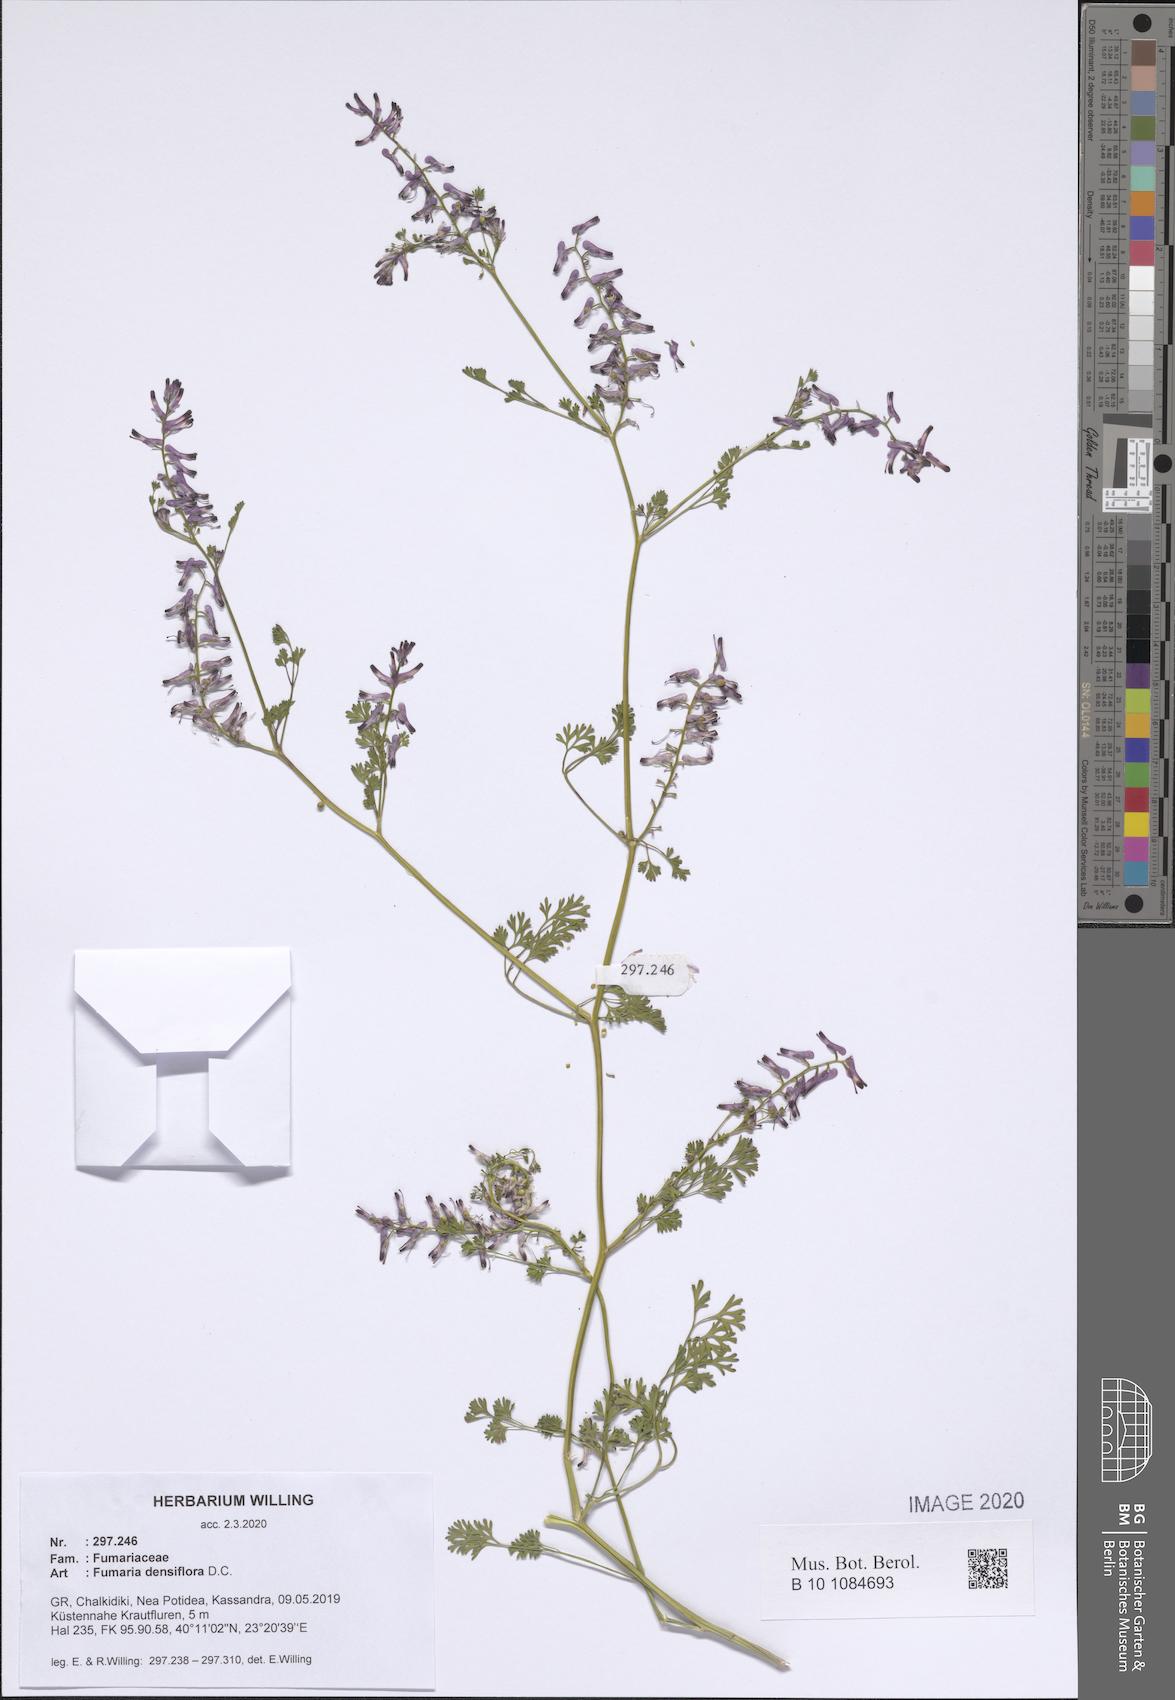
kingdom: Plantae
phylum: Tracheophyta
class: Magnoliopsida
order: Ranunculales
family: Papaveraceae
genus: Fumaria
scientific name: Fumaria densiflora
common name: Dense-flowered fumitory
